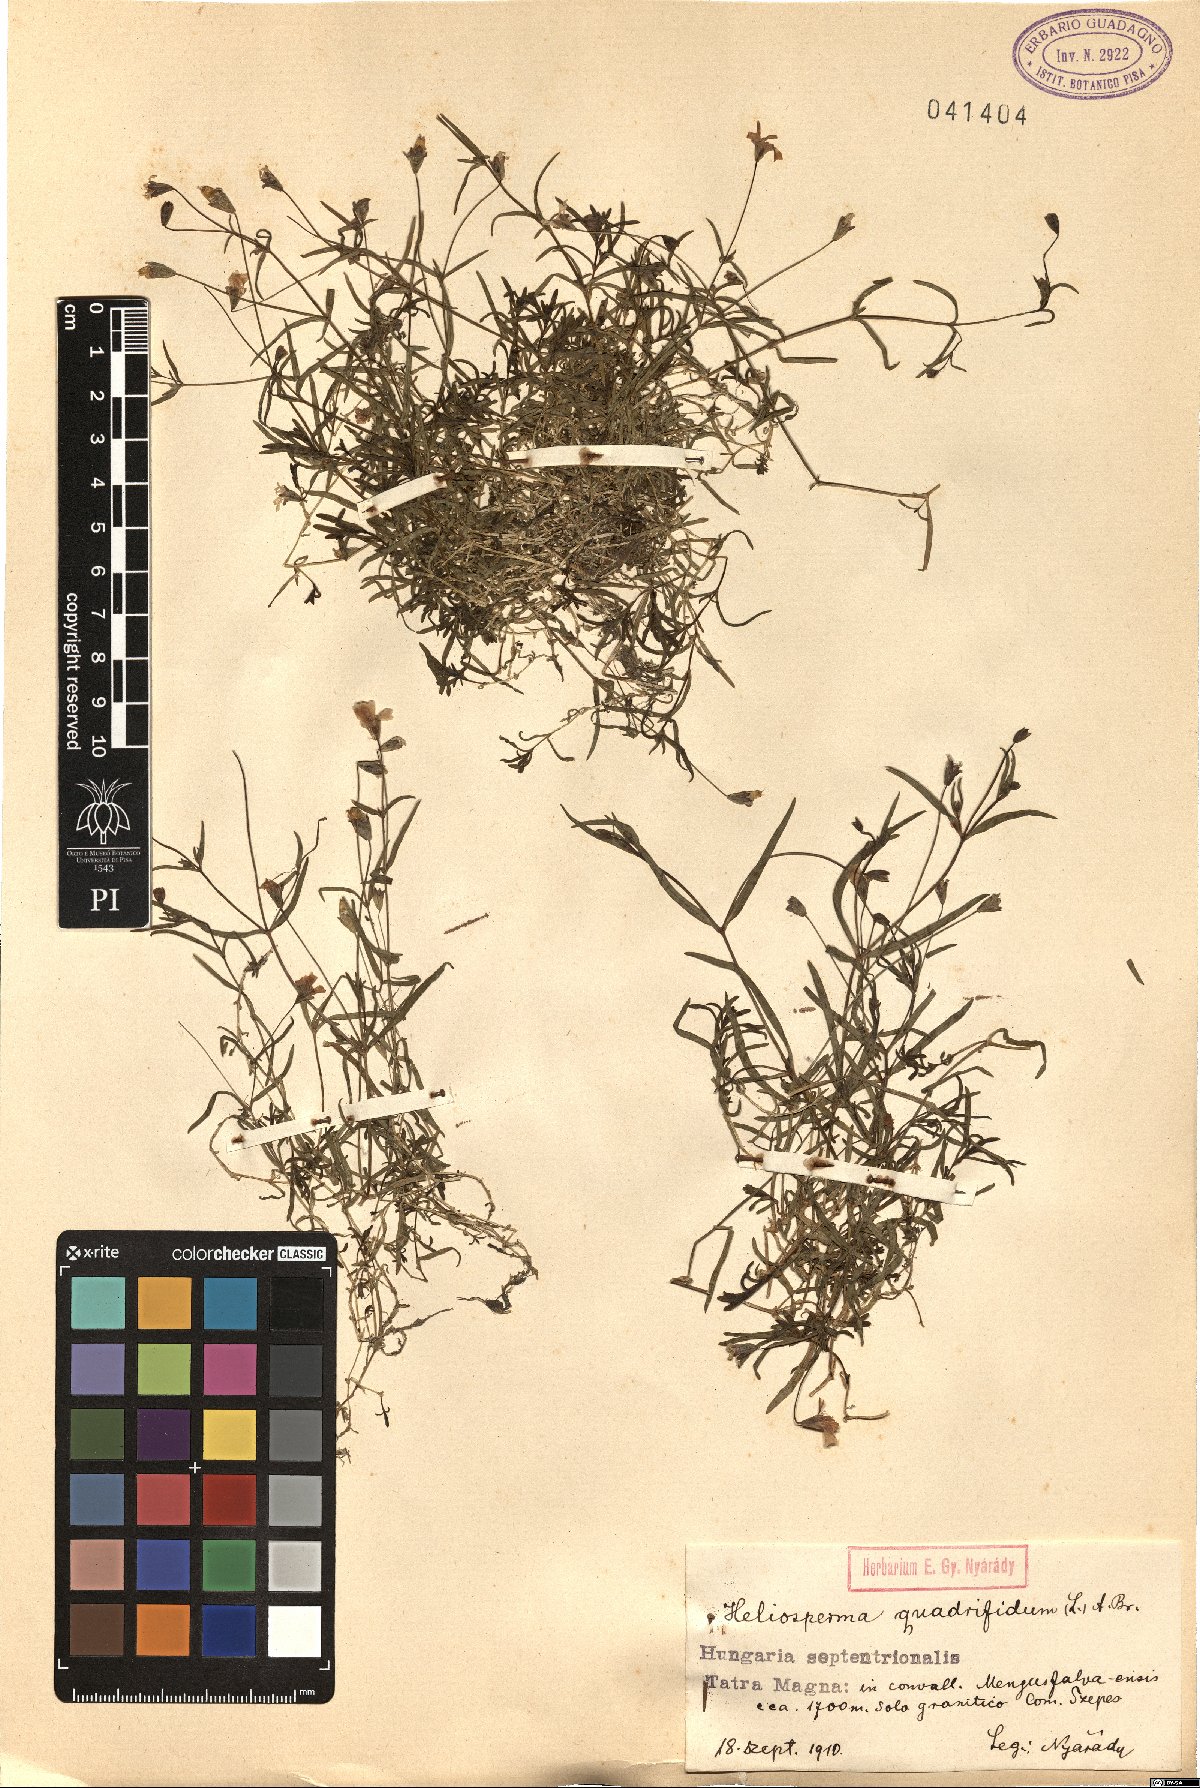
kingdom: Plantae
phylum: Tracheophyta
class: Magnoliopsida
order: Caryophyllales
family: Caryophyllaceae
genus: Heliosperma
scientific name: Heliosperma alpestre
